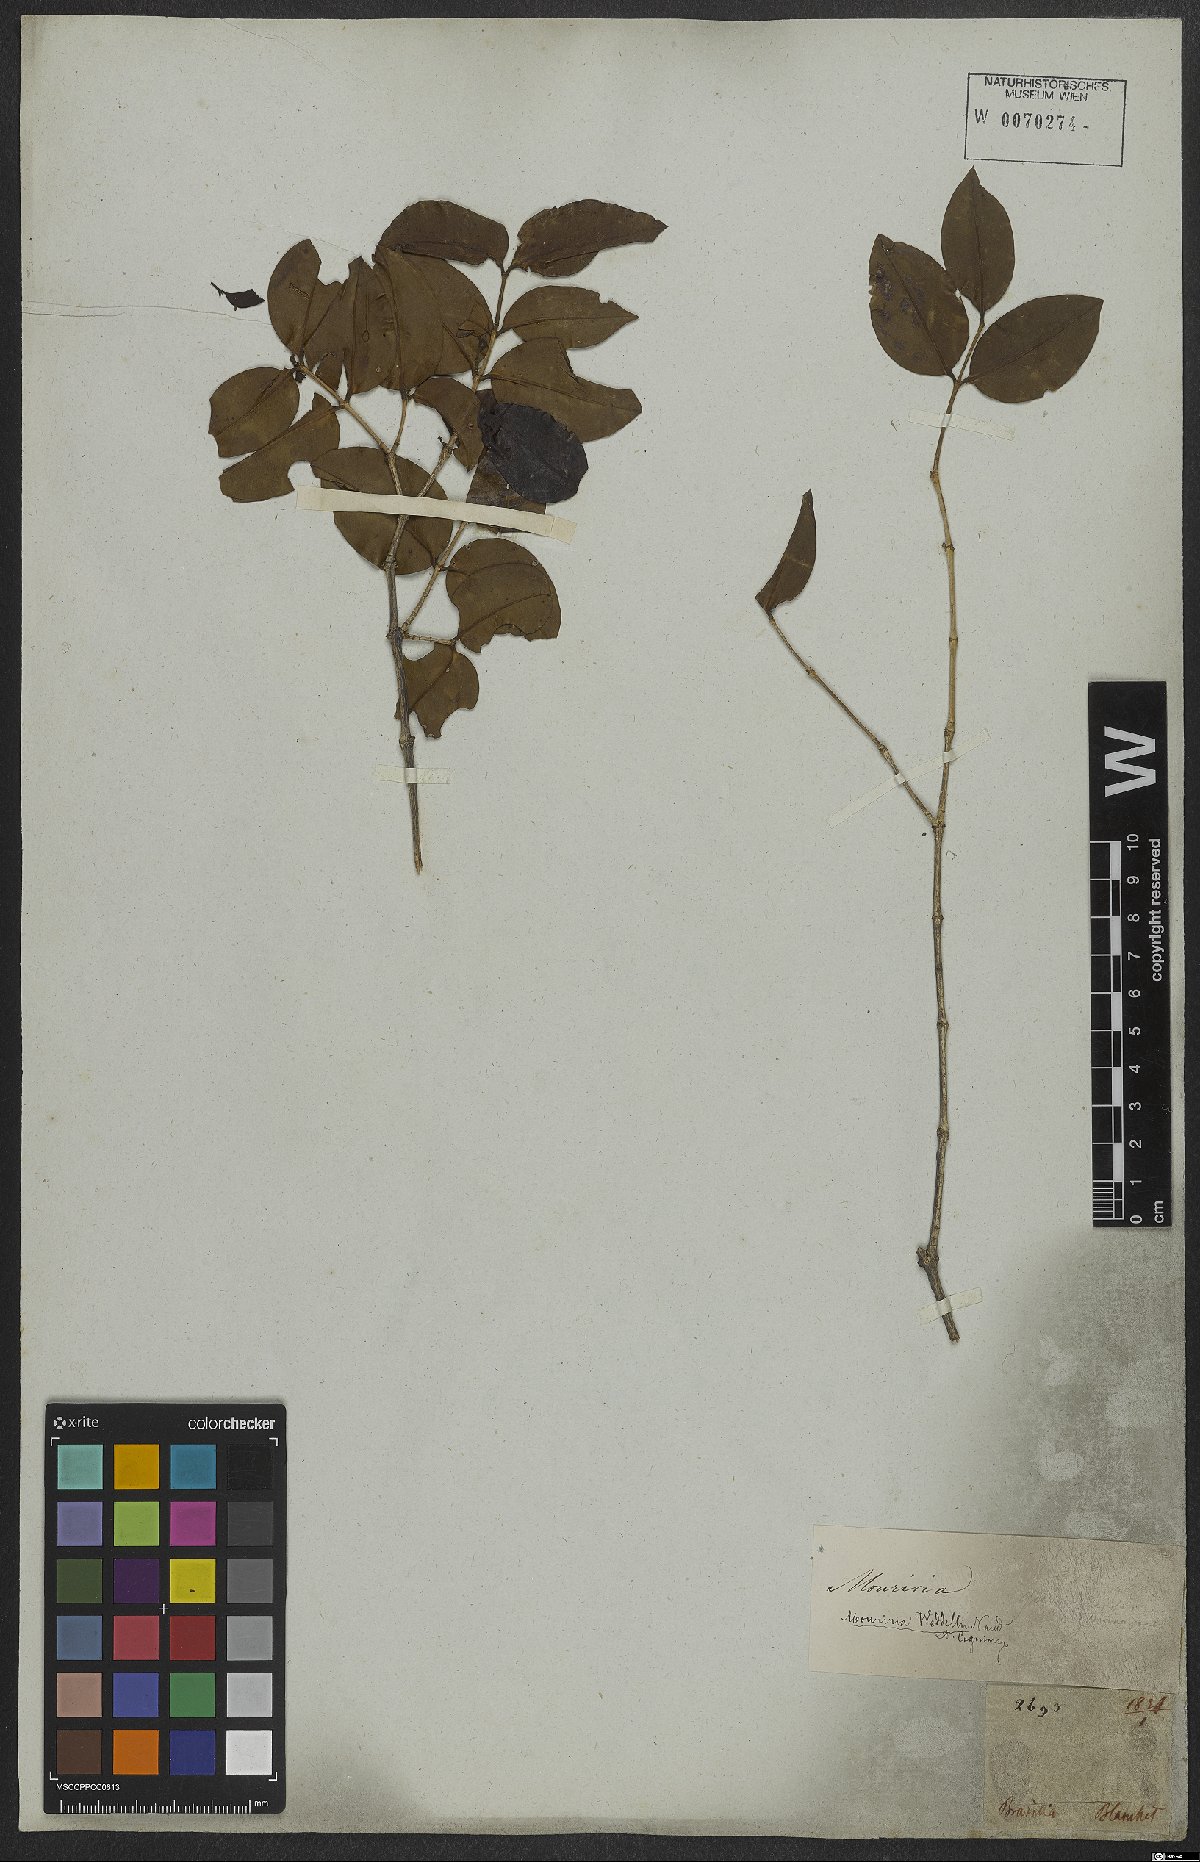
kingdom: Plantae
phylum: Tracheophyta
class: Magnoliopsida
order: Myrtales
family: Melastomataceae
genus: Mouriri
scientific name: Mouriri guianensis
